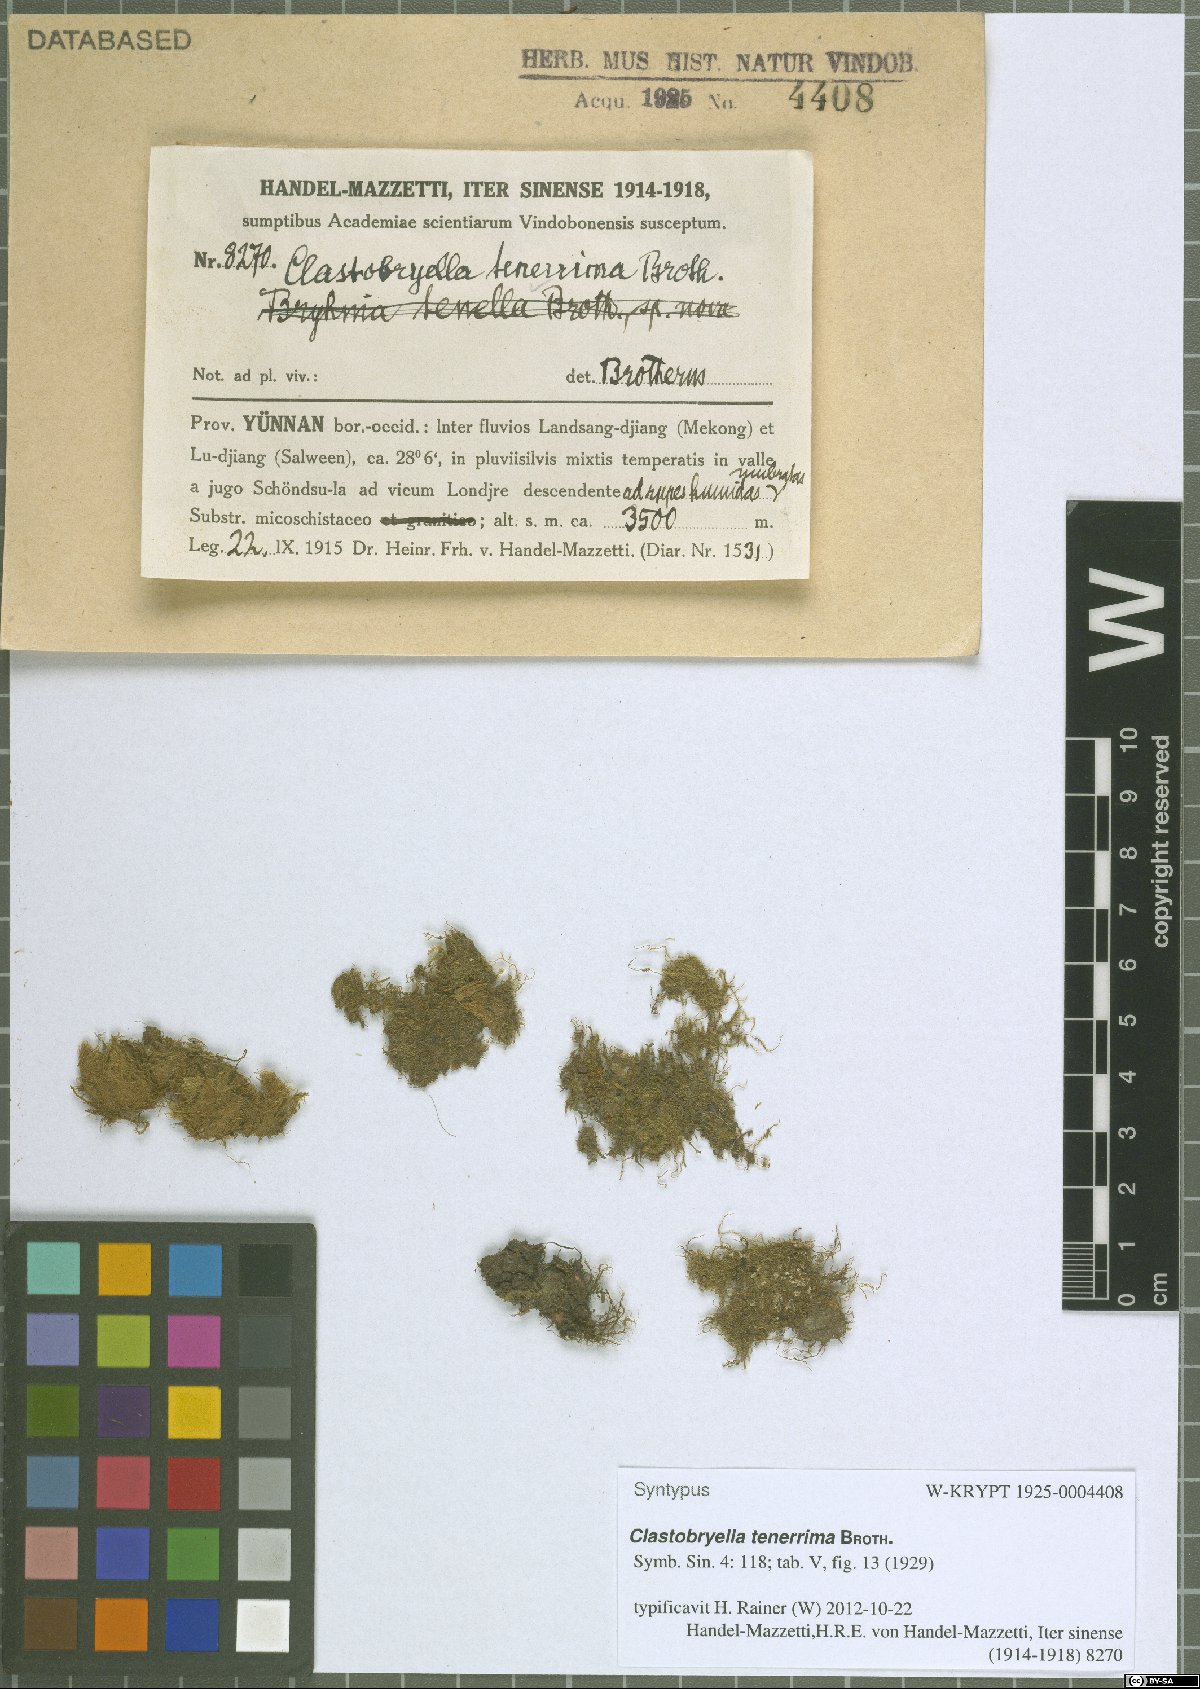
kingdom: Plantae
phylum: Bryophyta
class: Bryopsida
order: Hypnales
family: Pylaisiadelphaceae
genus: Clastobryellina
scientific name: Clastobryellina ceylonensis
